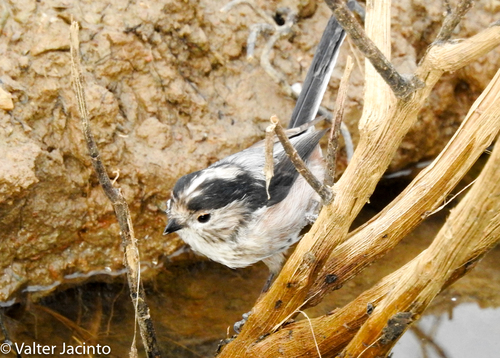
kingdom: Animalia
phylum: Chordata
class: Aves
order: Passeriformes
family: Aegithalidae
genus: Aegithalos
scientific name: Aegithalos caudatus
